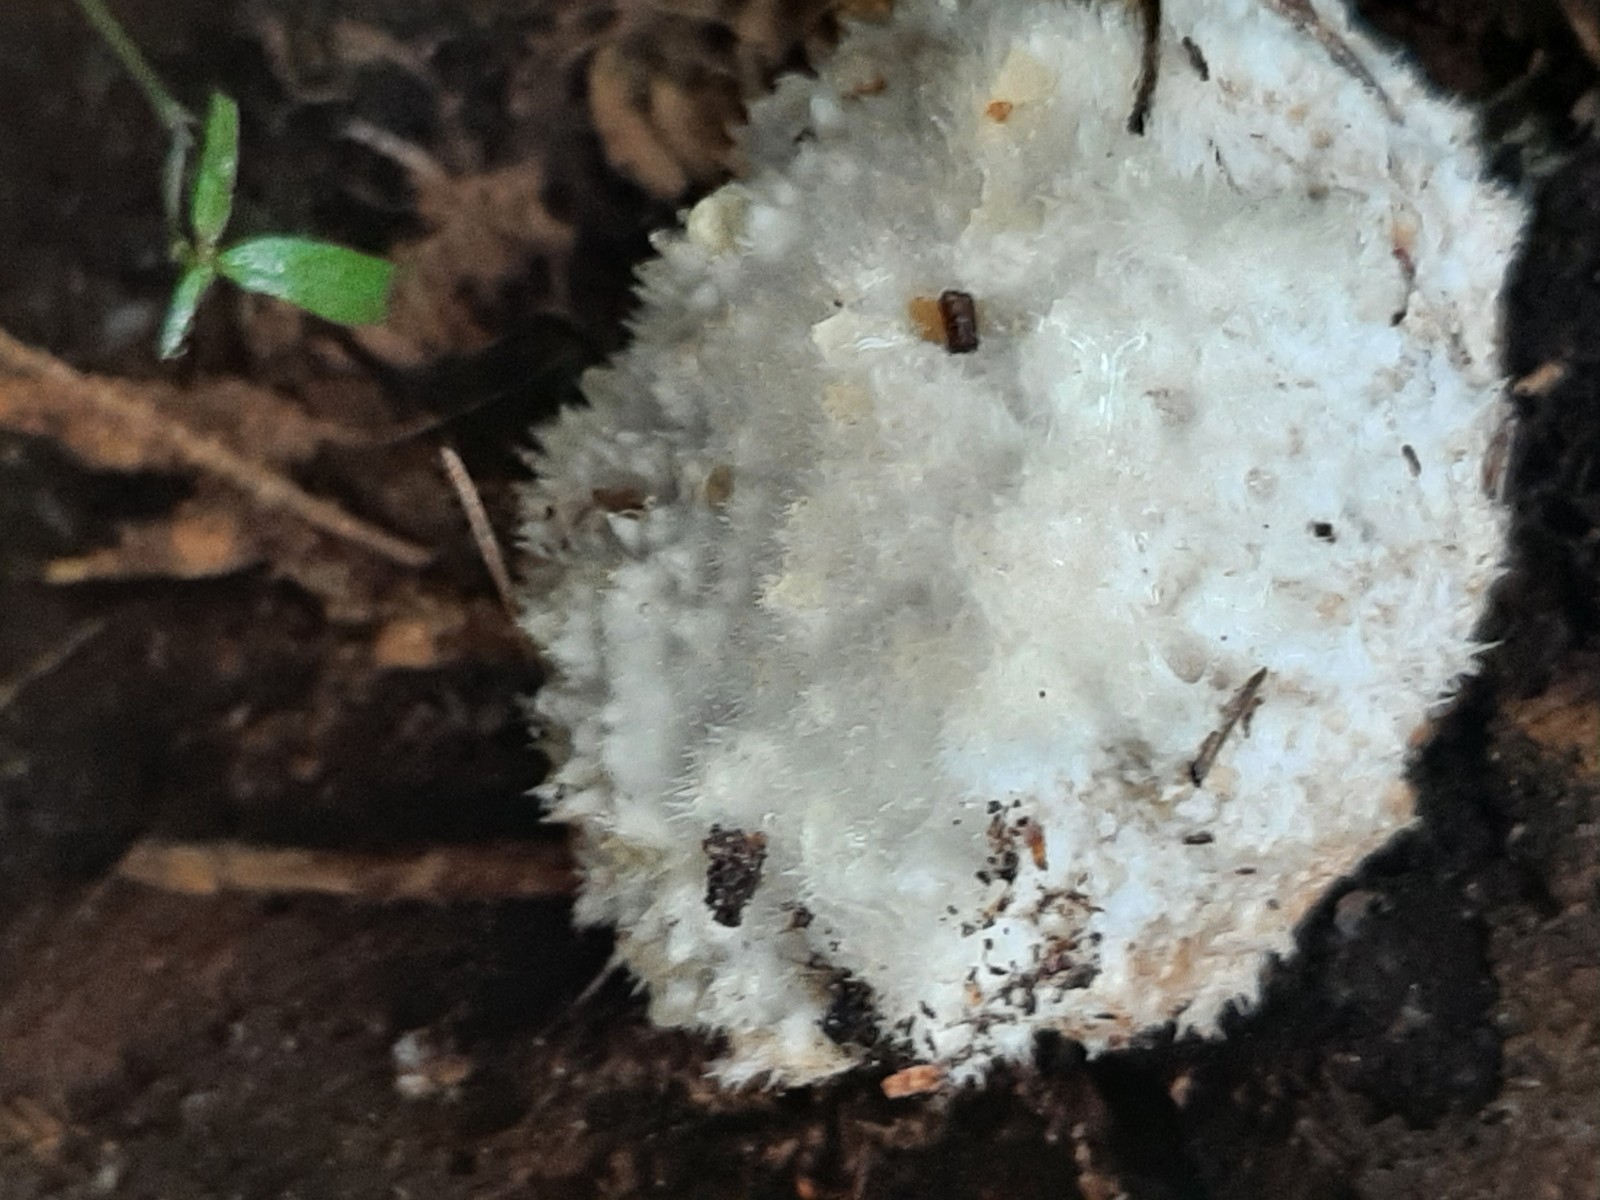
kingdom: Fungi
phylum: Basidiomycota
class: Agaricomycetes
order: Polyporales
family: Dacryobolaceae
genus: Postia
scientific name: Postia ptychogaster
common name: støvende kødporesvamp
